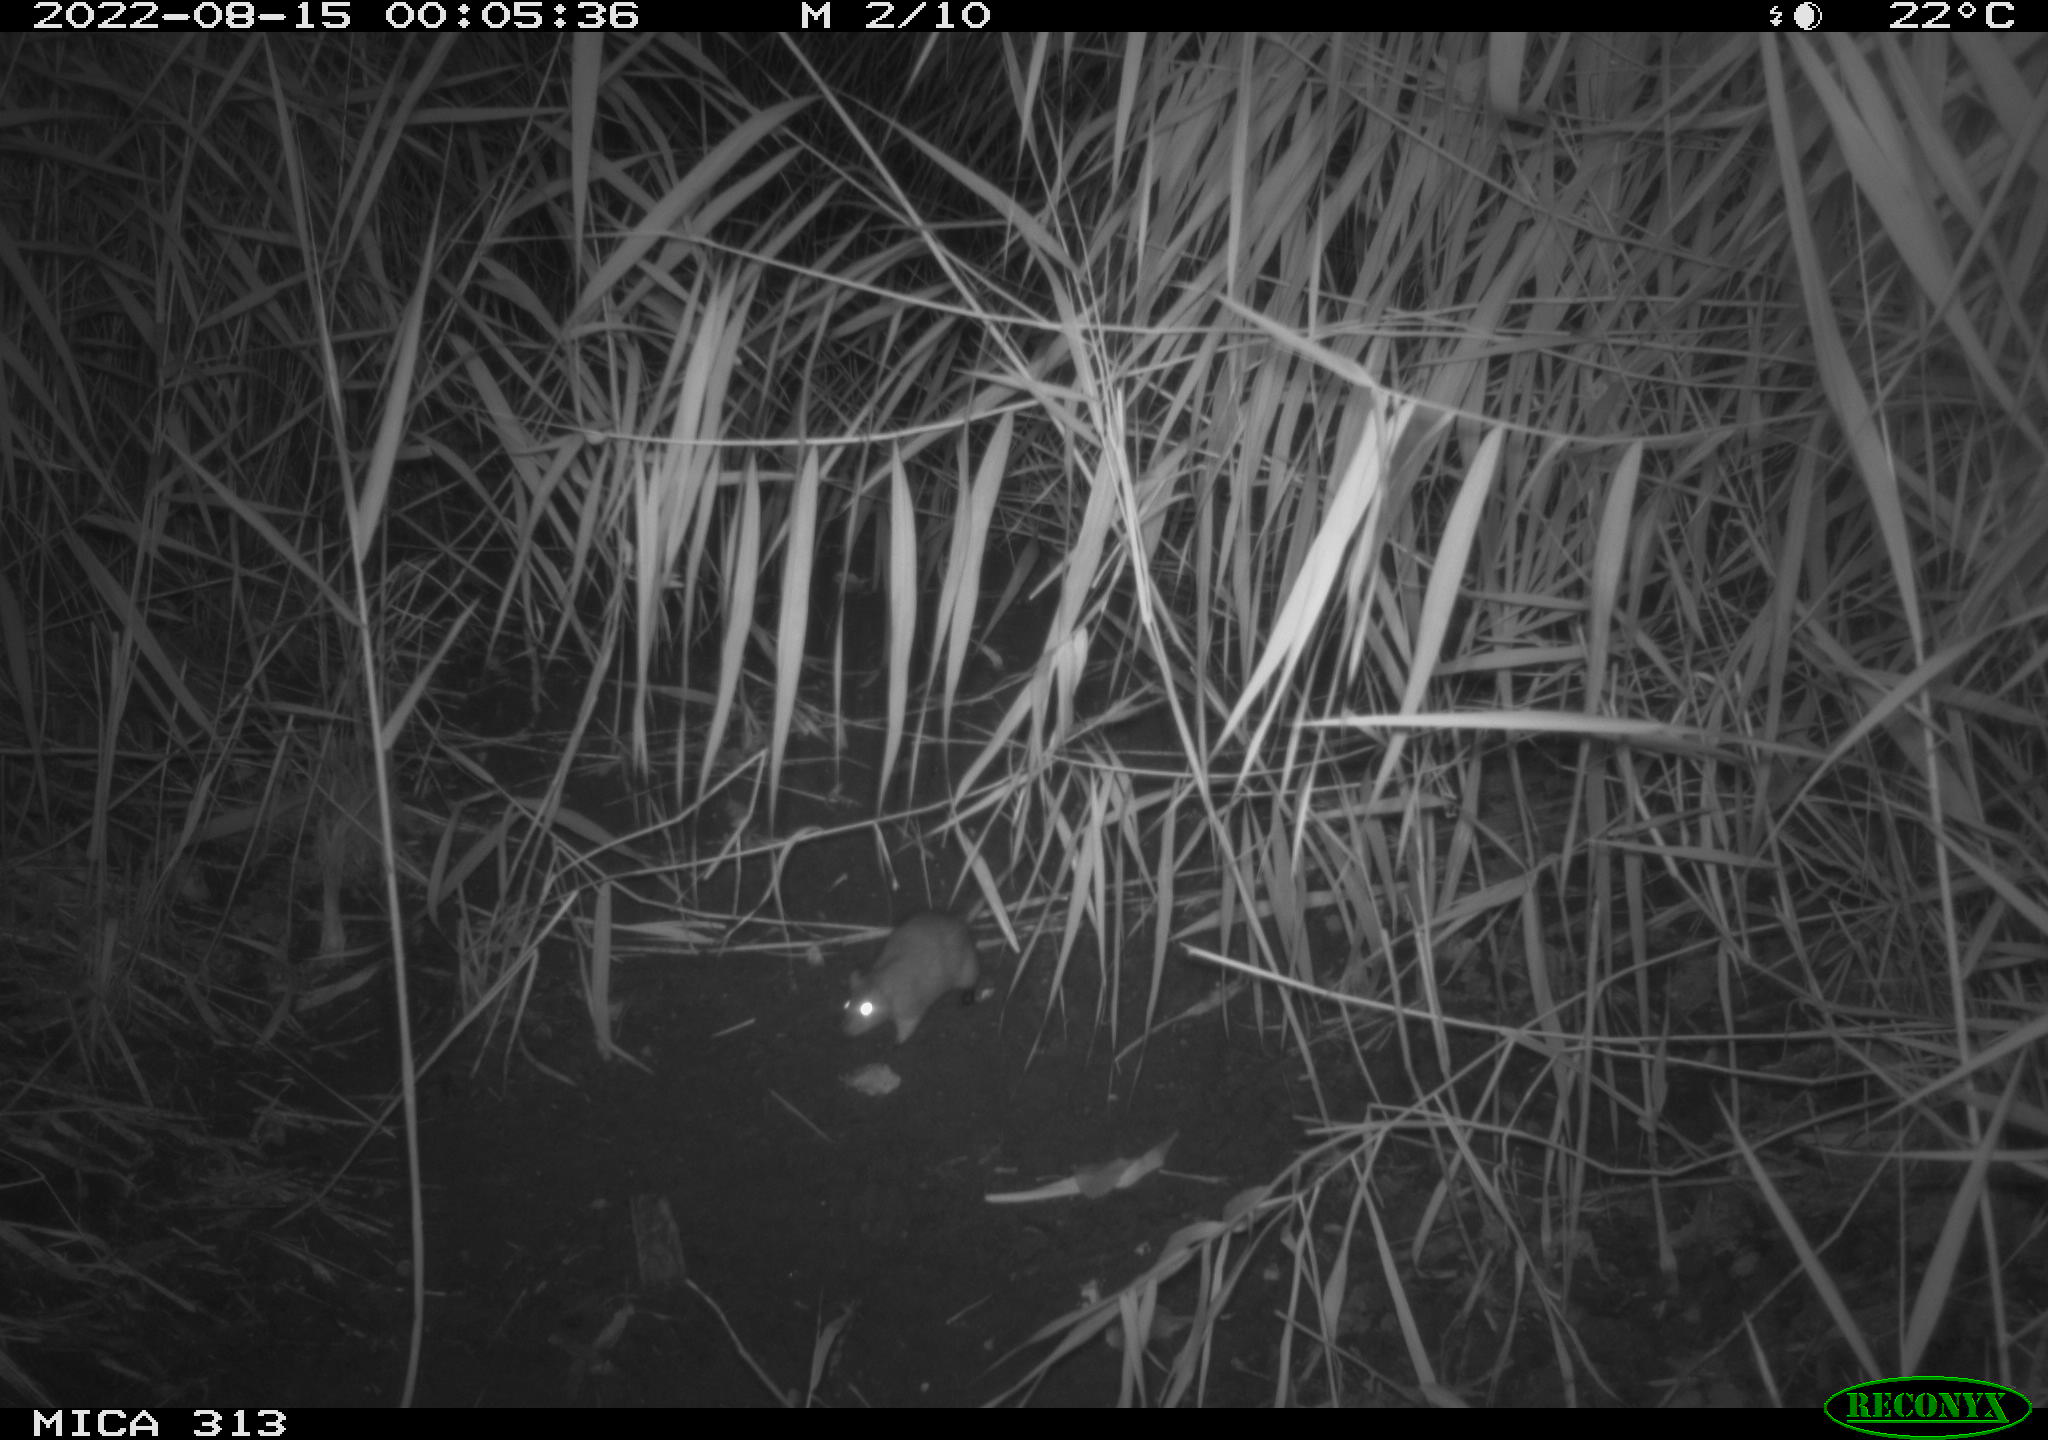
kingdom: Animalia
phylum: Chordata
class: Mammalia
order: Rodentia
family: Muridae
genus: Rattus
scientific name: Rattus norvegicus
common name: Brown rat
